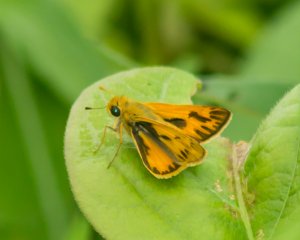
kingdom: Animalia
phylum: Arthropoda
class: Insecta
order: Lepidoptera
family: Hesperiidae
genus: Hylephila
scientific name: Hylephila phyleus
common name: Fiery Skipper
